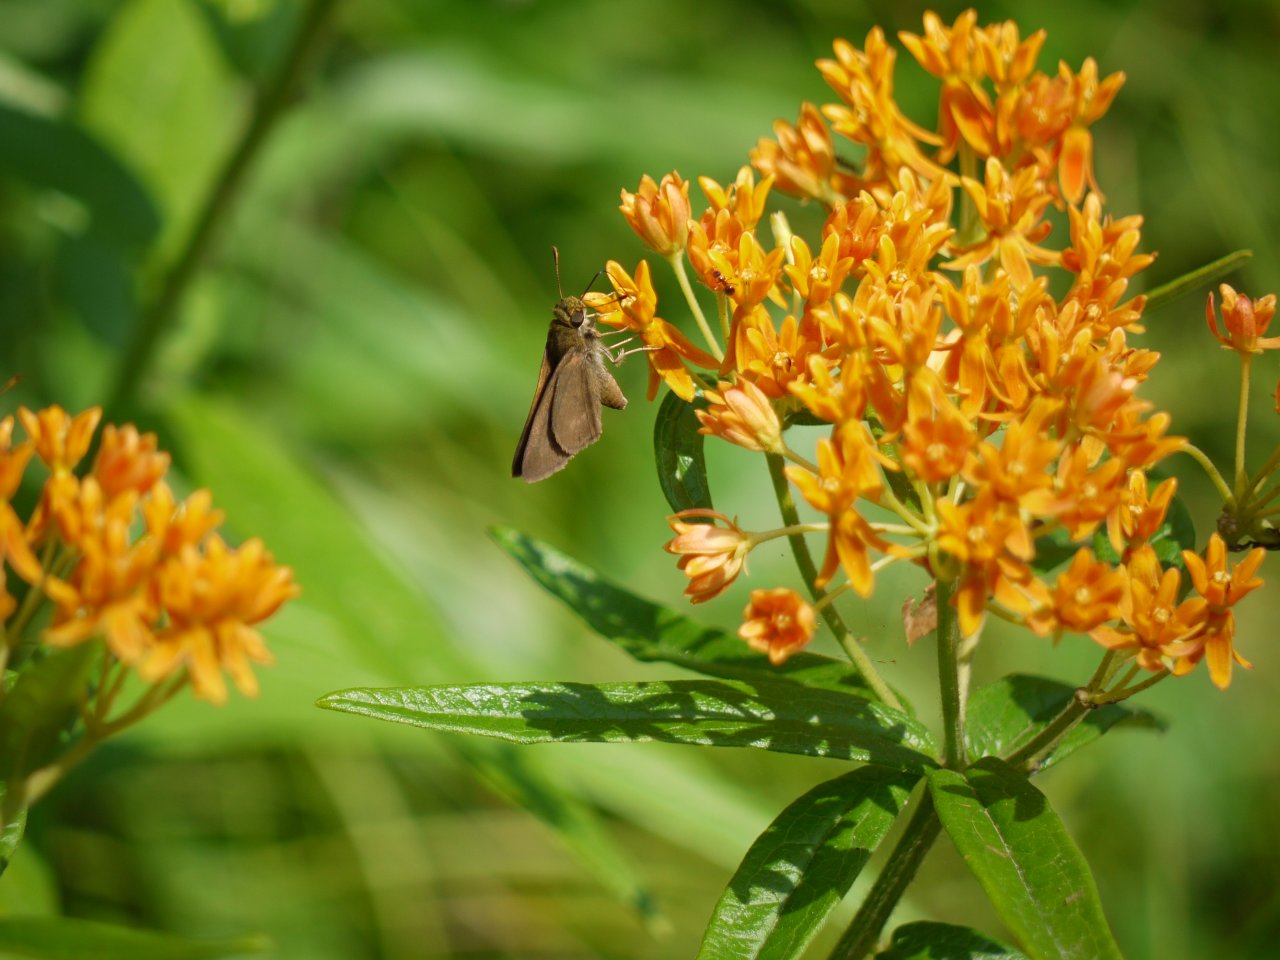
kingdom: Animalia
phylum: Arthropoda
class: Insecta
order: Lepidoptera
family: Hesperiidae
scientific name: Hesperiidae
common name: Skippers
